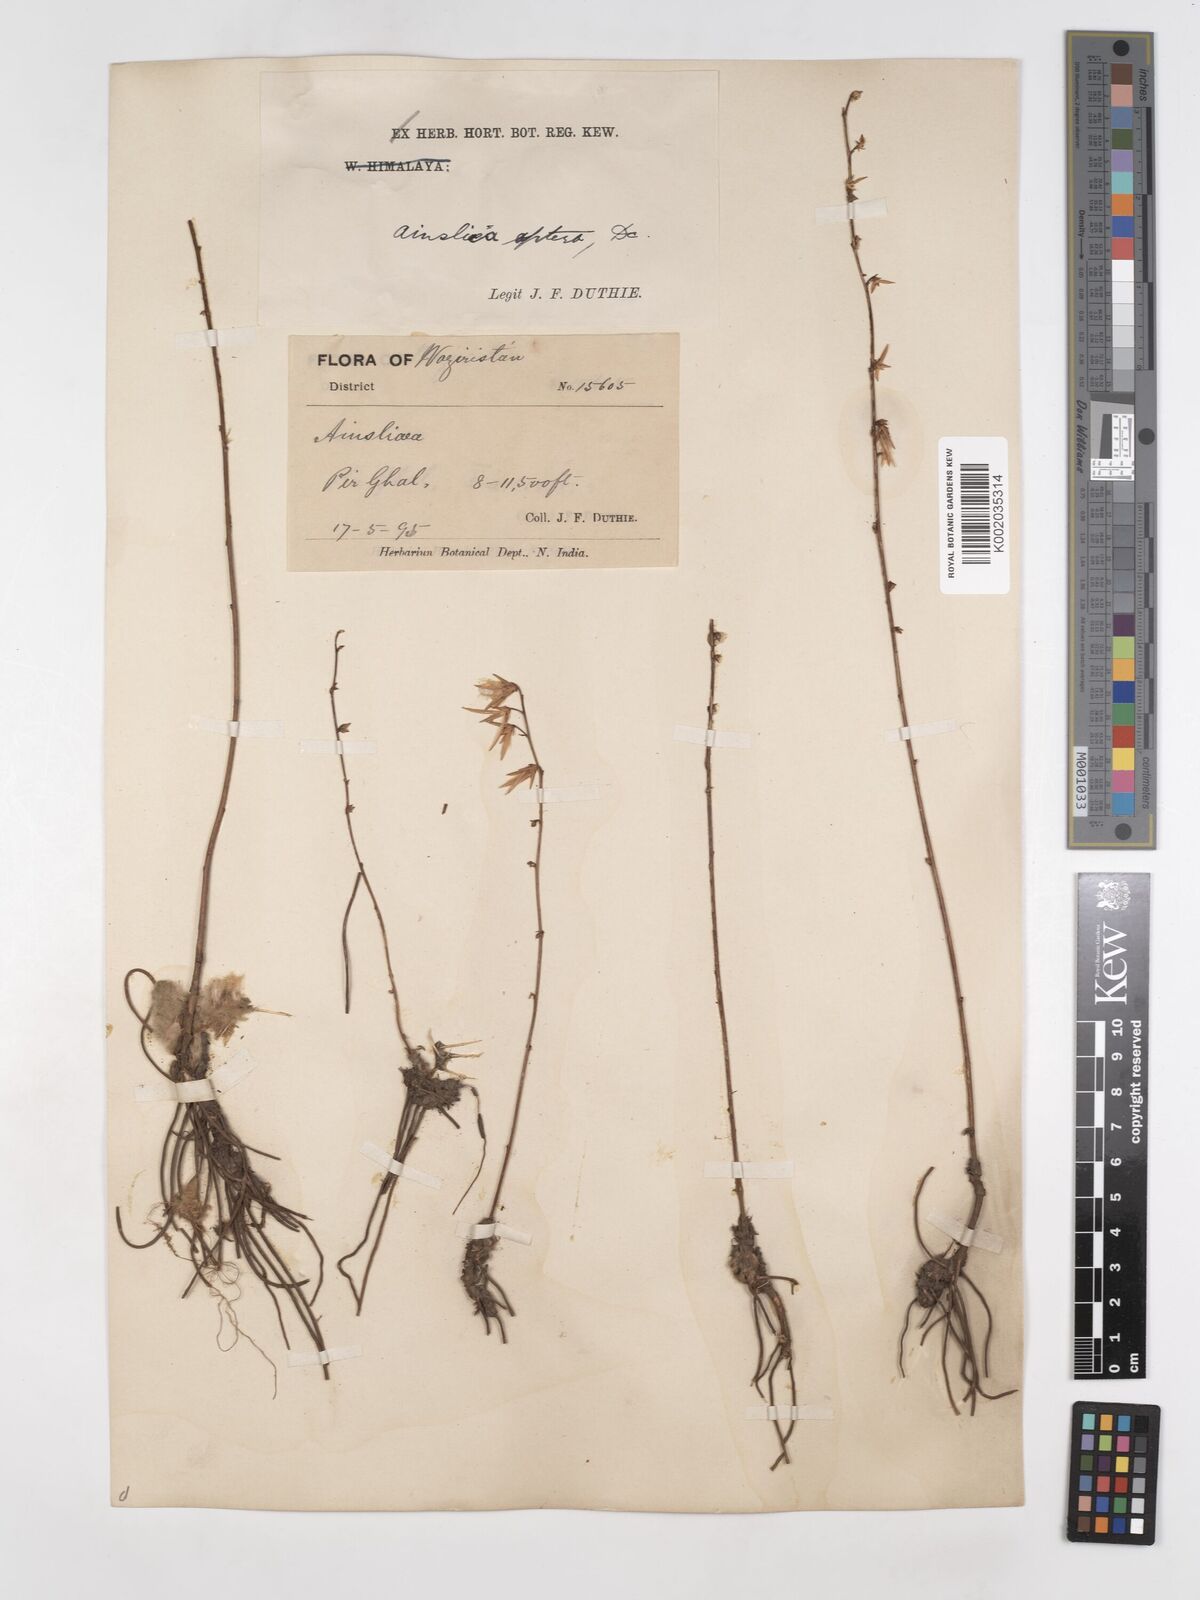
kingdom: Plantae
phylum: Tracheophyta
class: Magnoliopsida
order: Asterales
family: Asteraceae
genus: Ainsliaea
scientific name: Ainsliaea aptera
